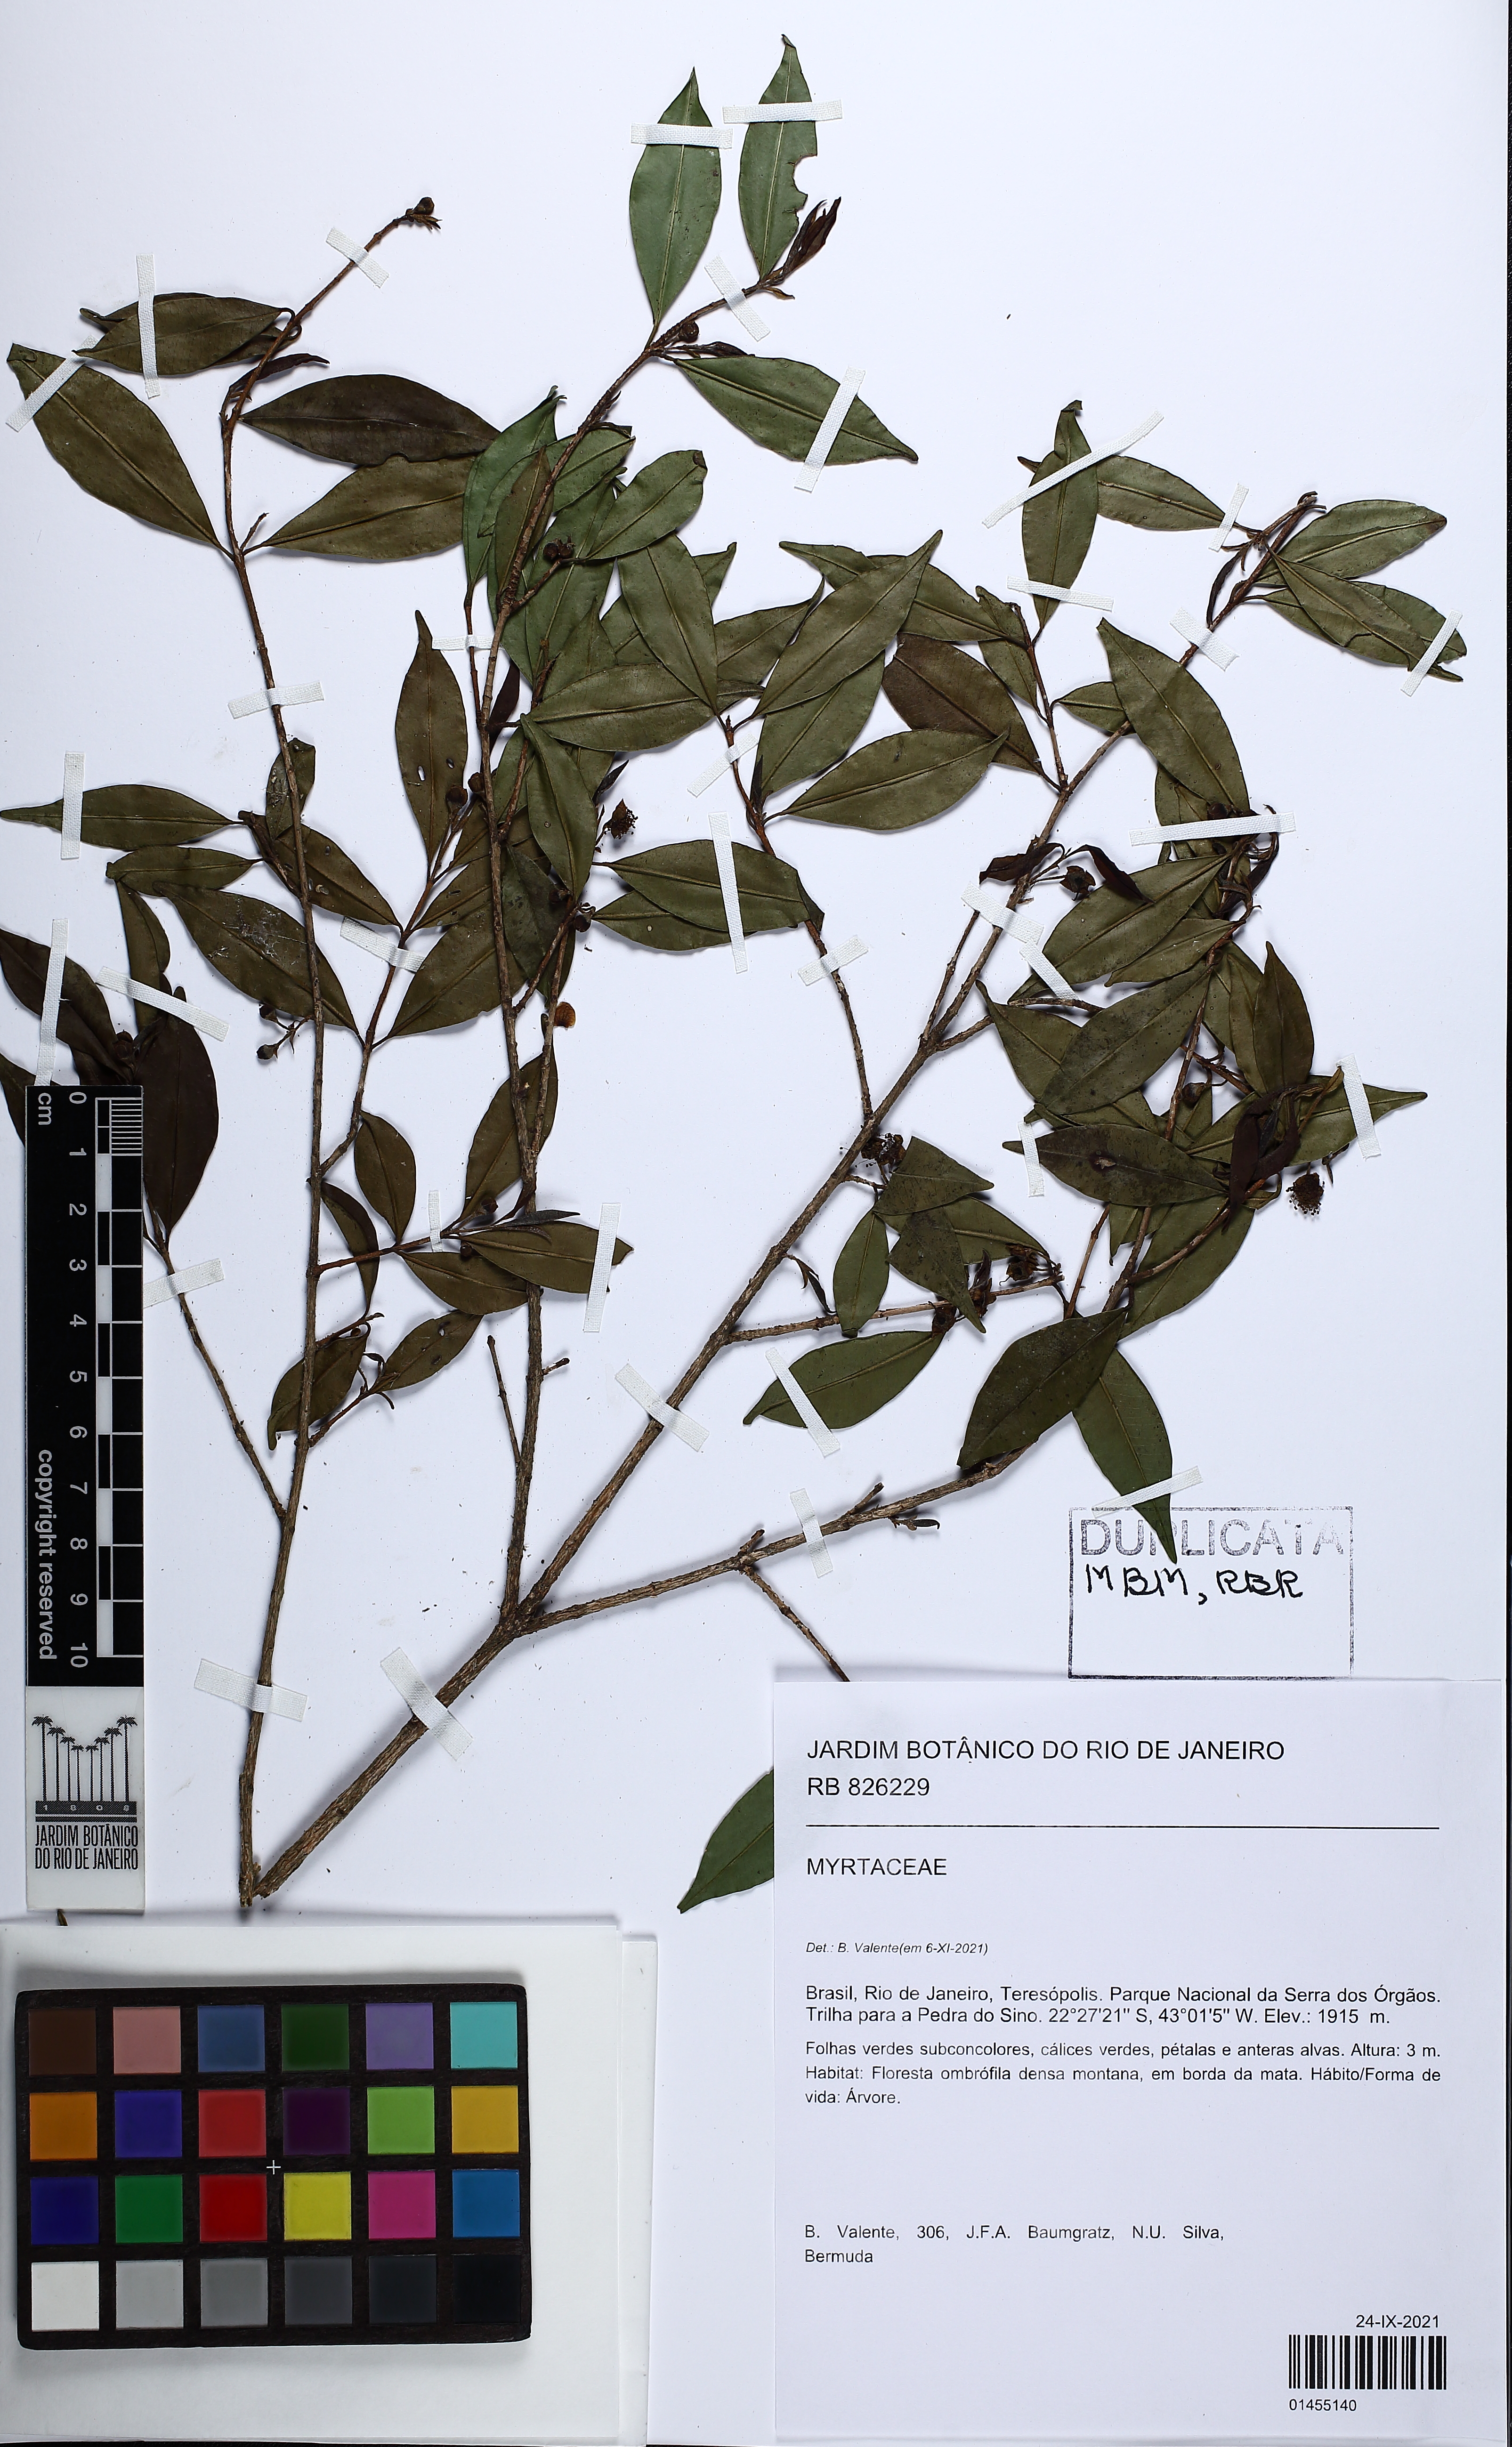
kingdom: Plantae
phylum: Tracheophyta
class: Magnoliopsida
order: Myrtales
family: Myrtaceae
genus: Eugenia
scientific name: Eugenia
